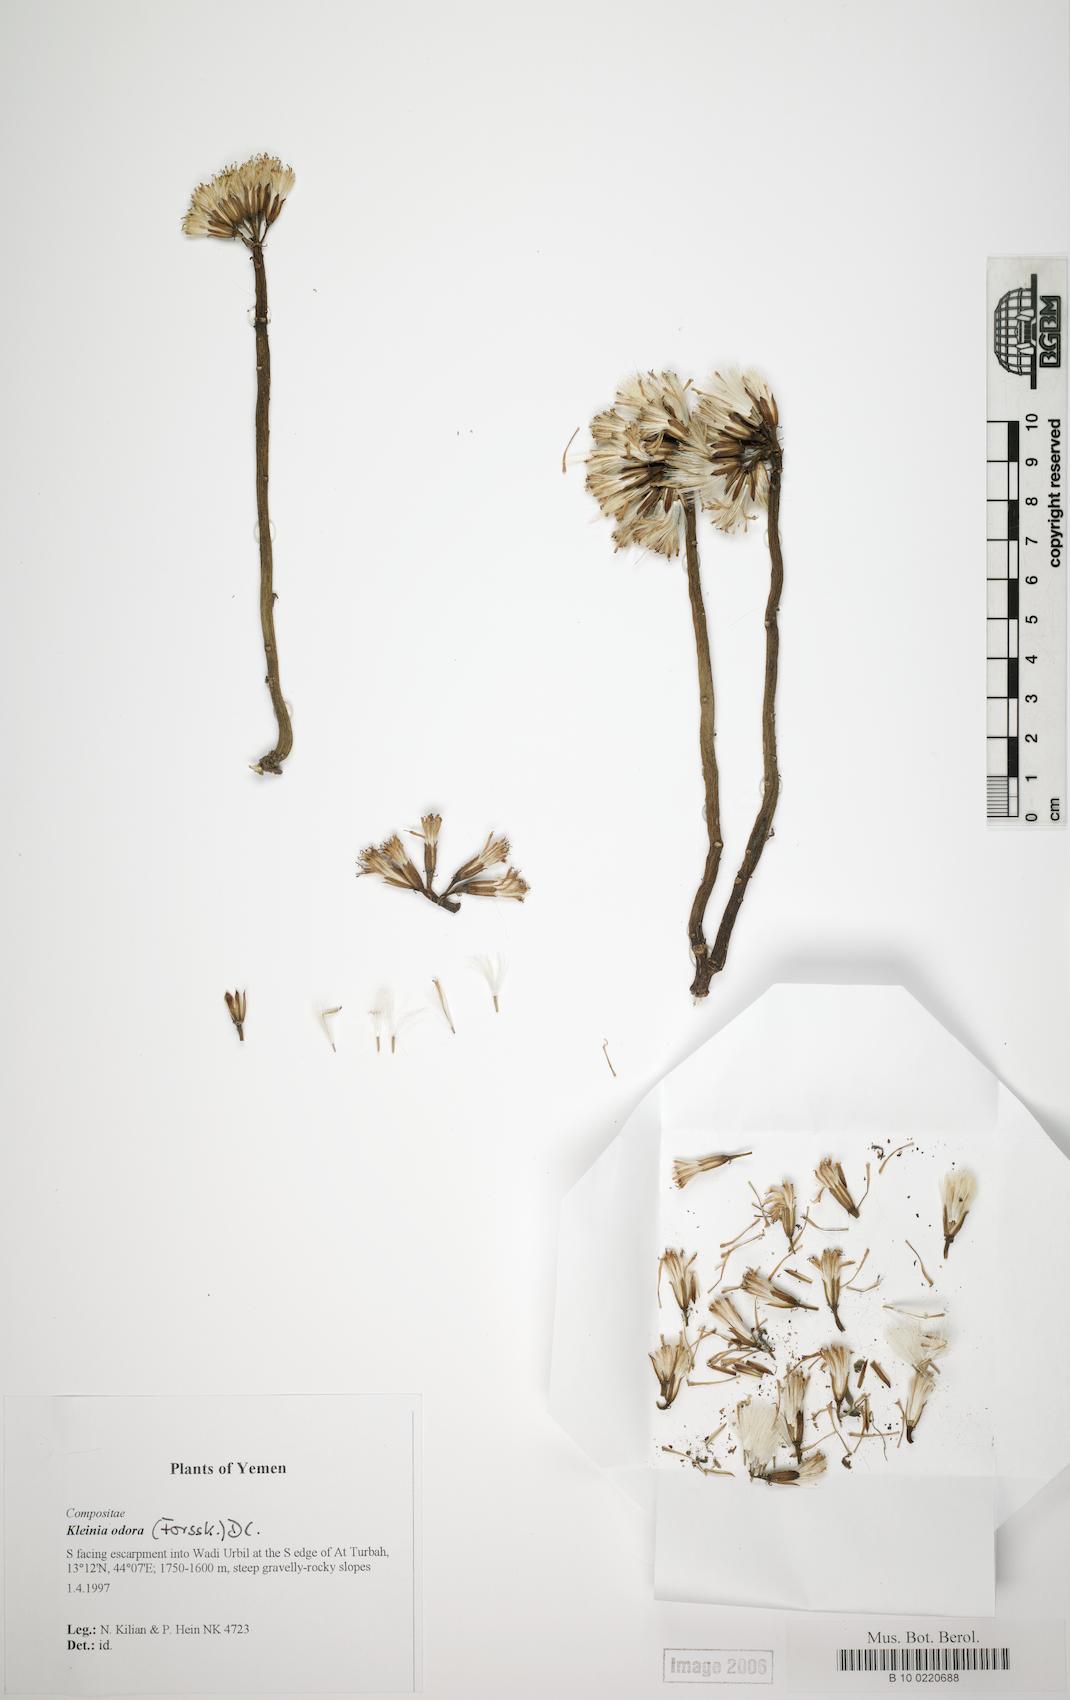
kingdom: Plantae
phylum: Tracheophyta
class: Magnoliopsida
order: Caryophyllales
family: Caryophyllaceae
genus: Arenaria
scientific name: Arenaria leptoclados
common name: Thyme-leaved sandwort
